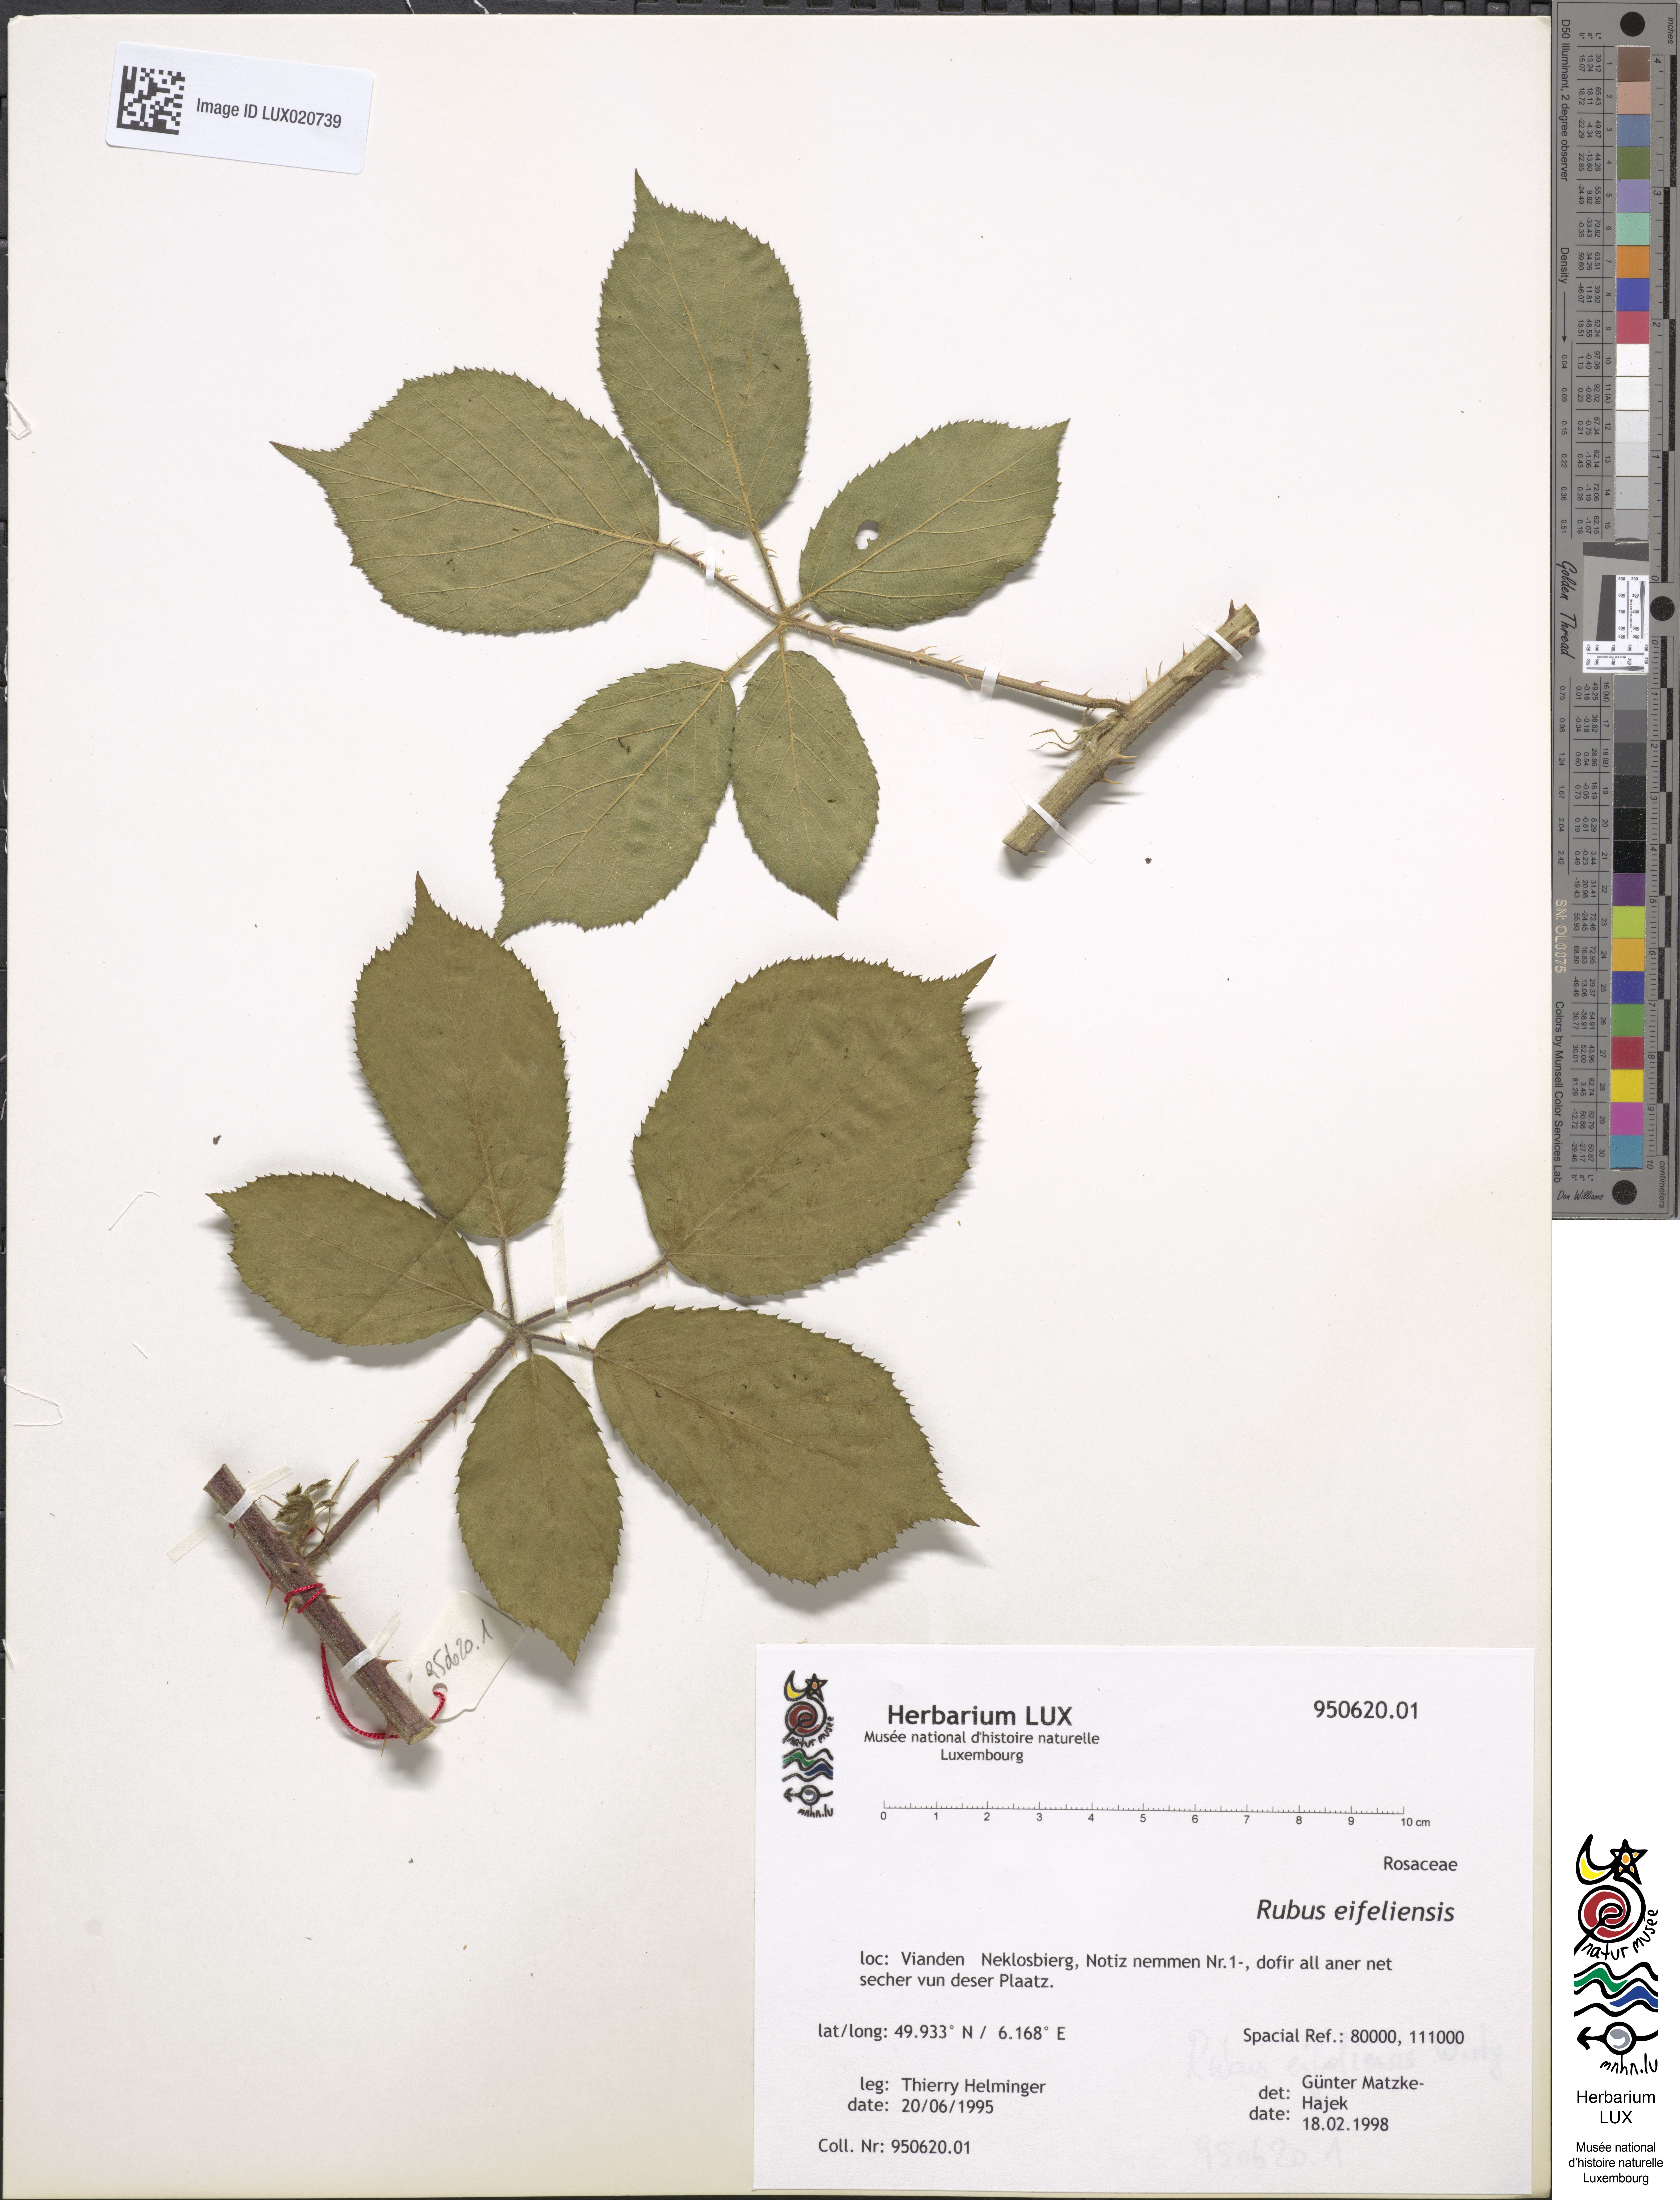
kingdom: Plantae
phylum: Tracheophyta
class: Magnoliopsida
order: Rosales
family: Rosaceae
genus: Rubus
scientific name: Rubus eifeliensis
